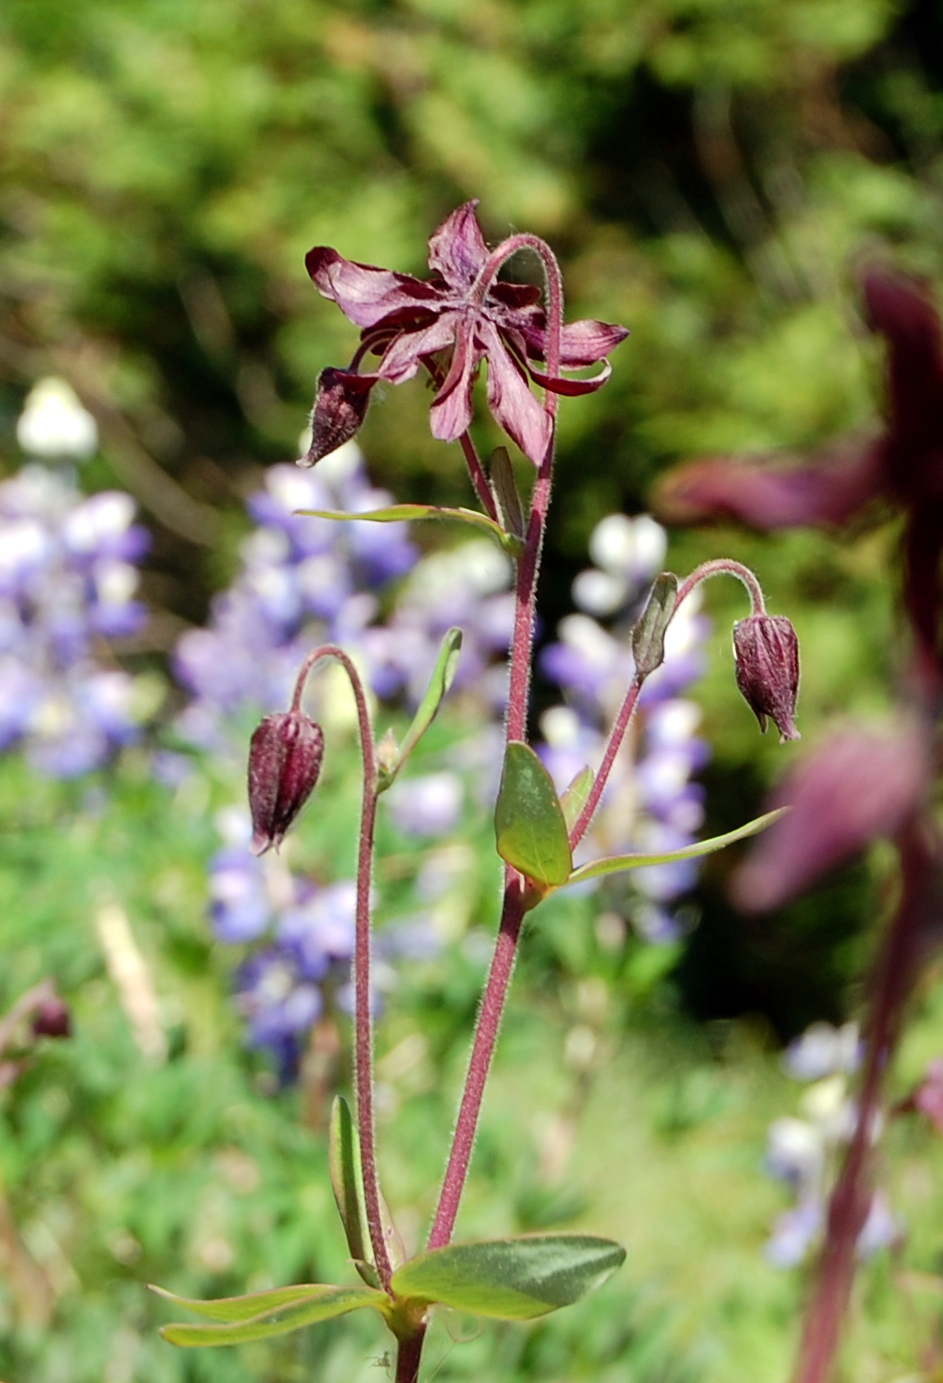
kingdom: Plantae
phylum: Tracheophyta
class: Magnoliopsida
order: Ranunculales
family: Ranunculaceae
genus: Aquilegia
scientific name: Aquilegia vulgaris
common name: Columbine
